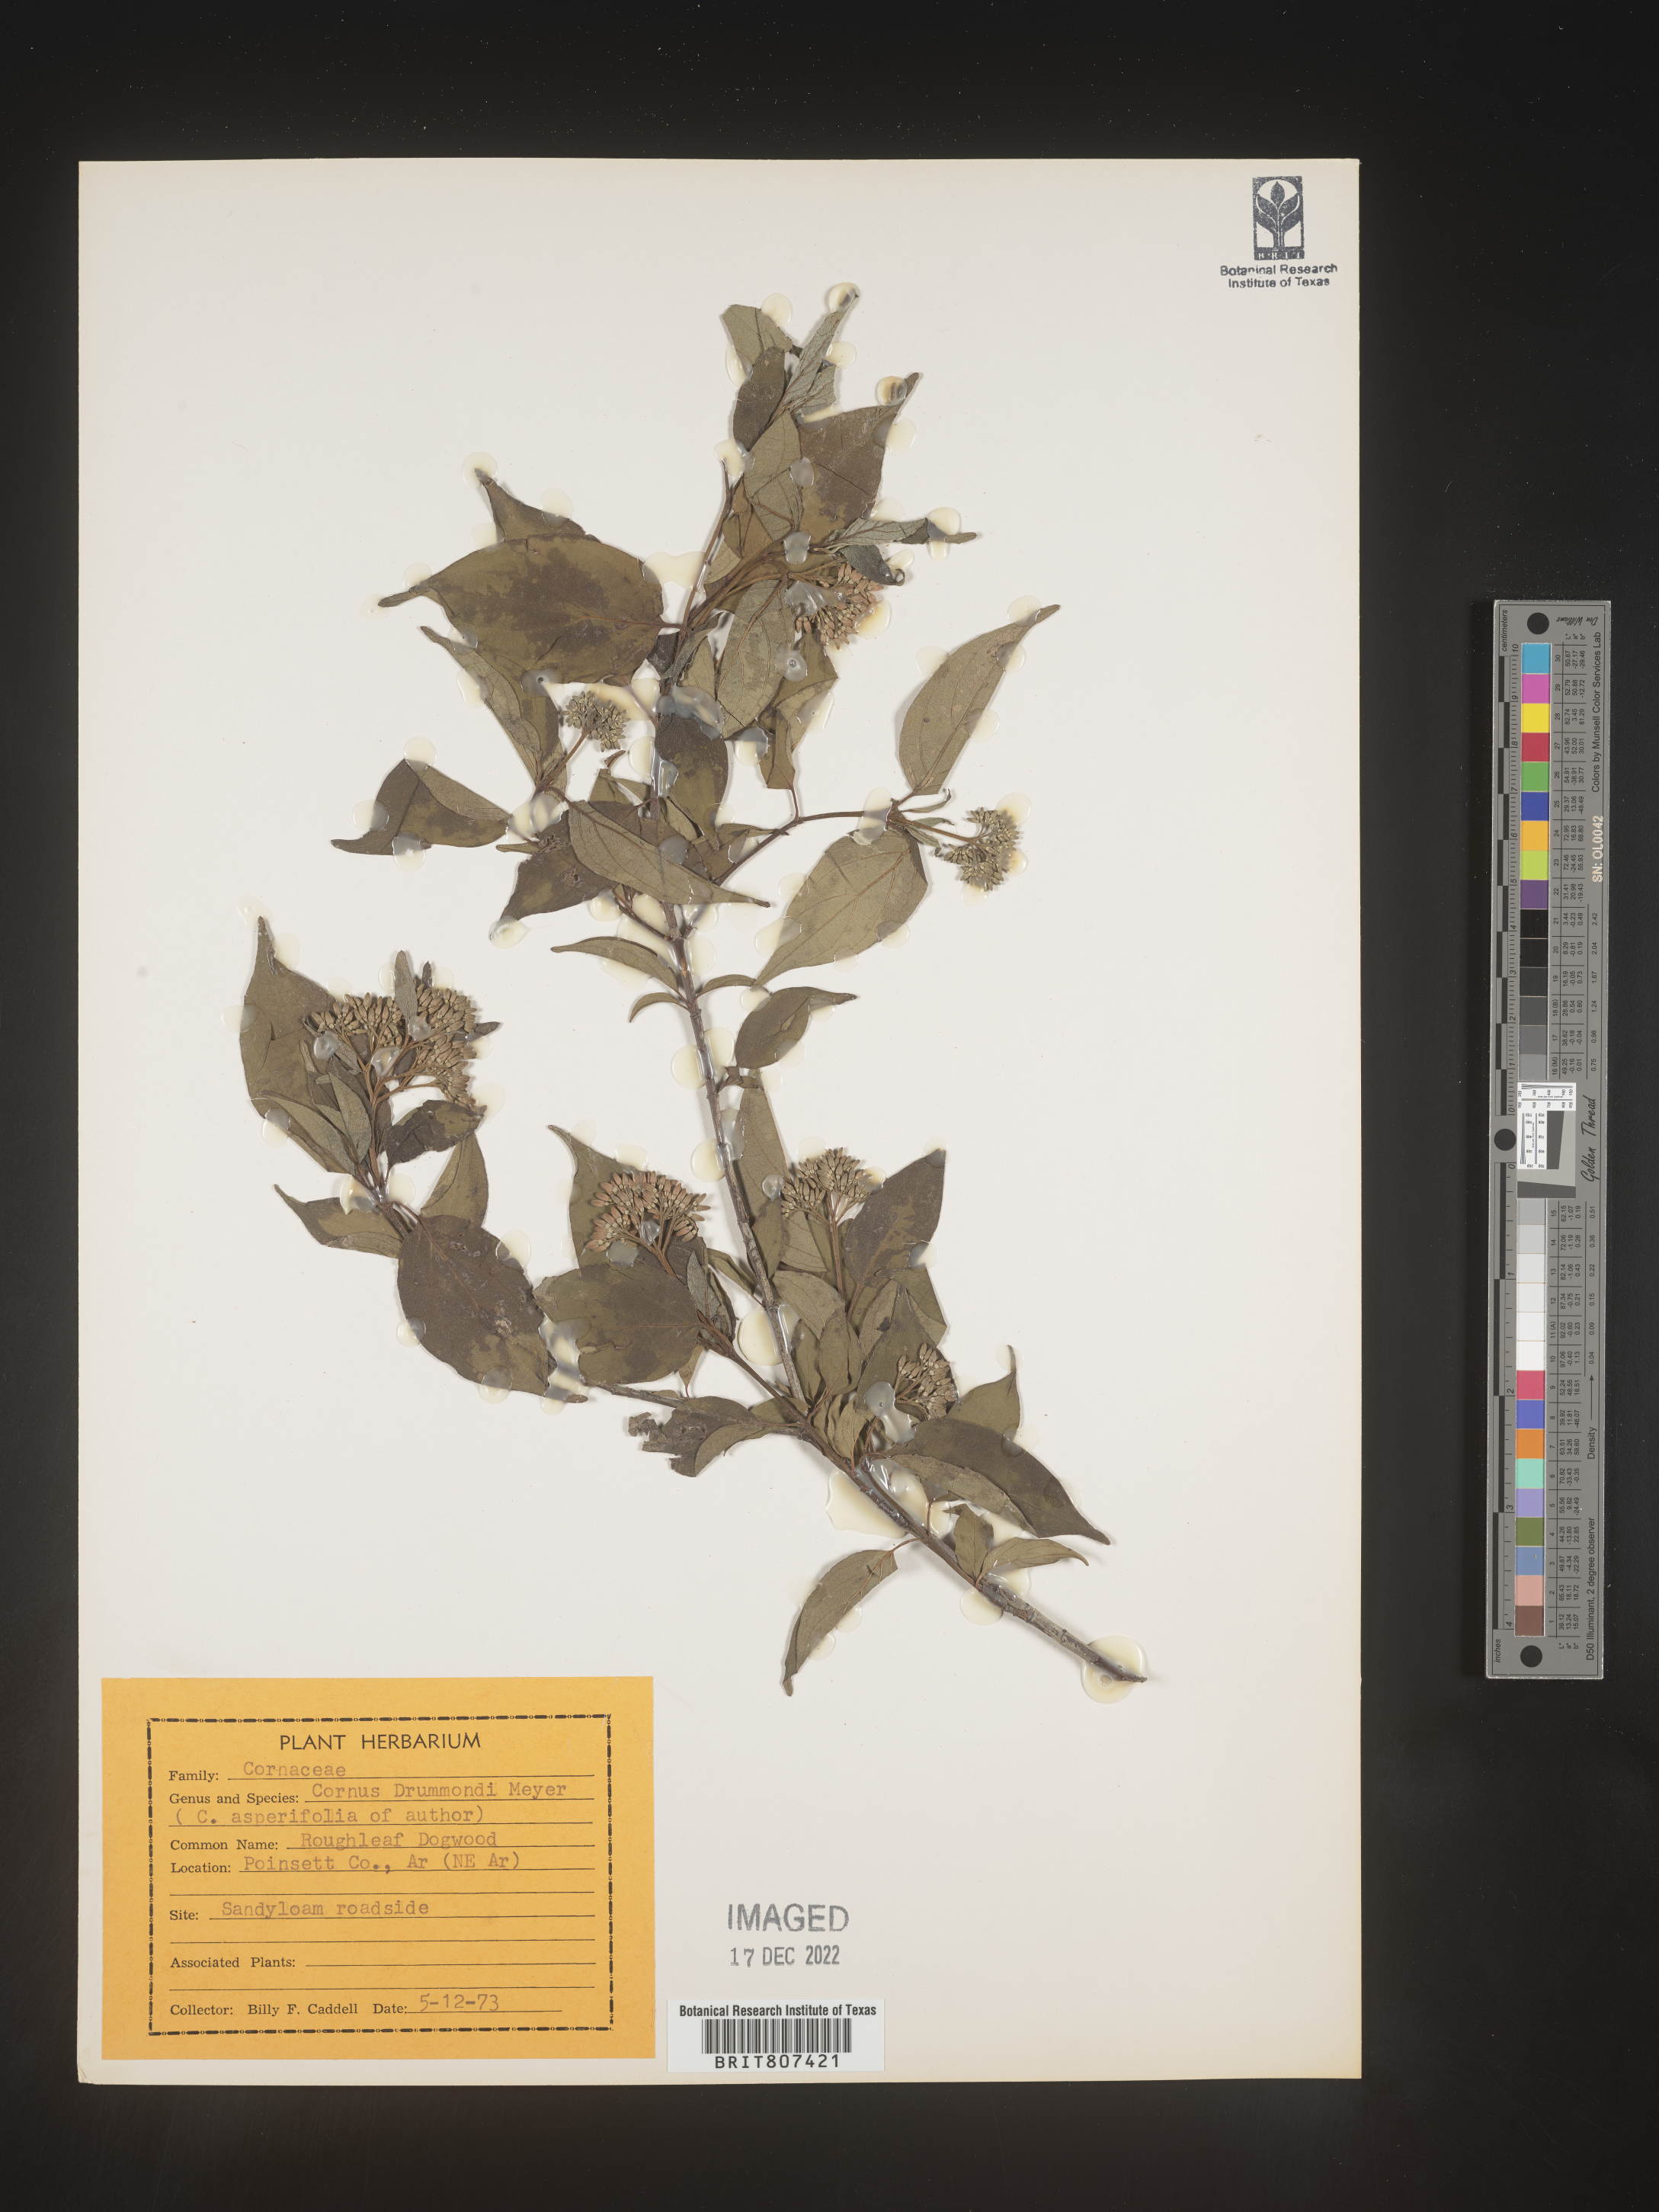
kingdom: Plantae
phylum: Tracheophyta
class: Magnoliopsida
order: Cornales
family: Cornaceae
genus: Cornus
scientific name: Cornus drummondii
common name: Rough-leaf dogwood
